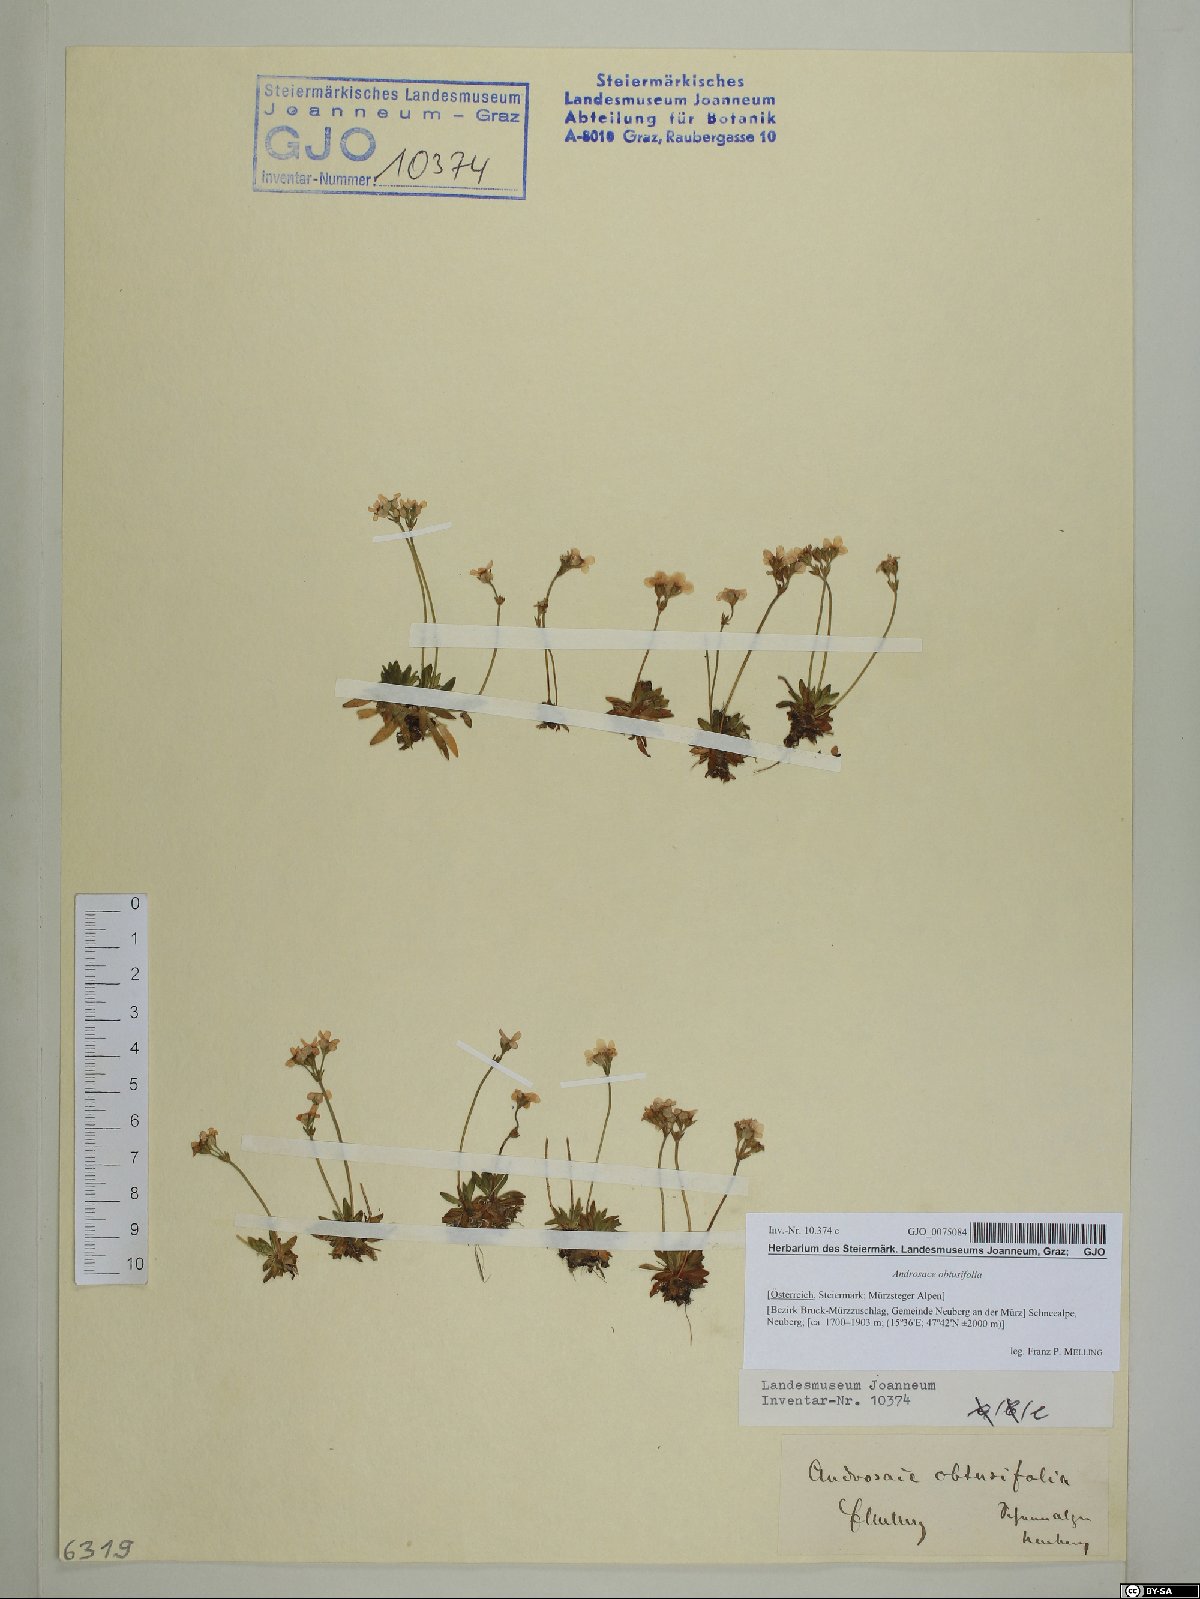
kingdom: Plantae
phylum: Tracheophyta
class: Magnoliopsida
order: Ericales
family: Primulaceae
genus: Androsace
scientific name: Androsace obtusifolia
